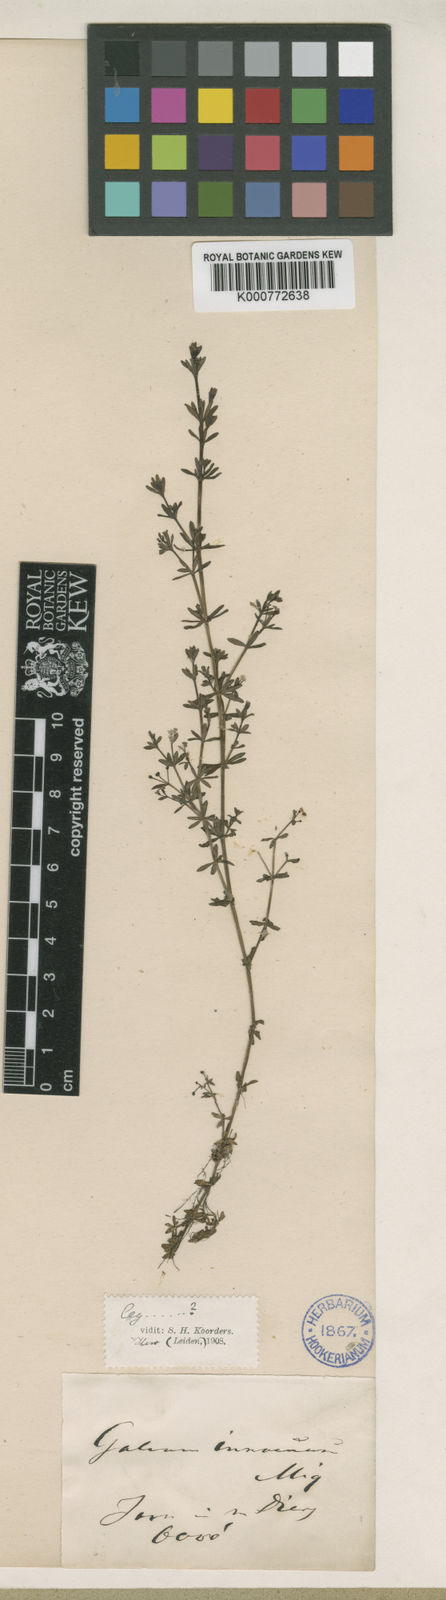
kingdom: Plantae
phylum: Tracheophyta
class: Magnoliopsida
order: Gentianales
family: Rubiaceae
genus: Galium
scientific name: Galium innocuum
